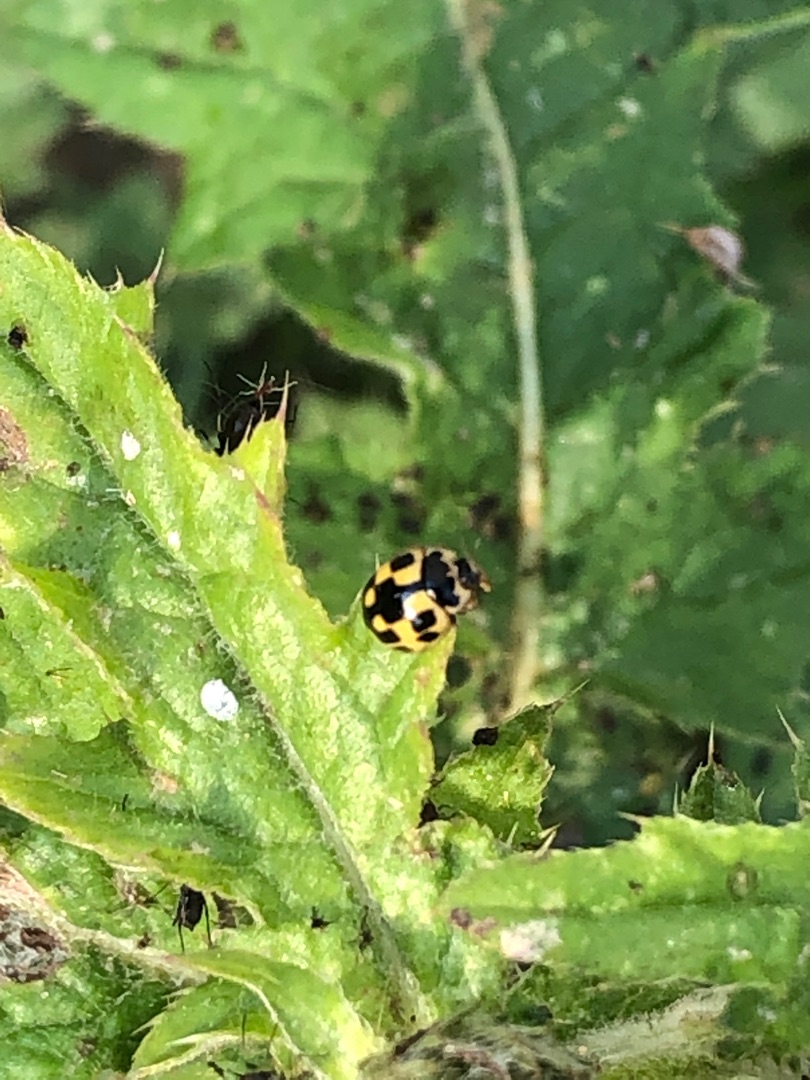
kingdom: Animalia
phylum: Arthropoda
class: Insecta
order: Coleoptera
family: Coccinellidae
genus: Propylaea
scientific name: Propylaea quatuordecimpunctata
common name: Skakbræt
